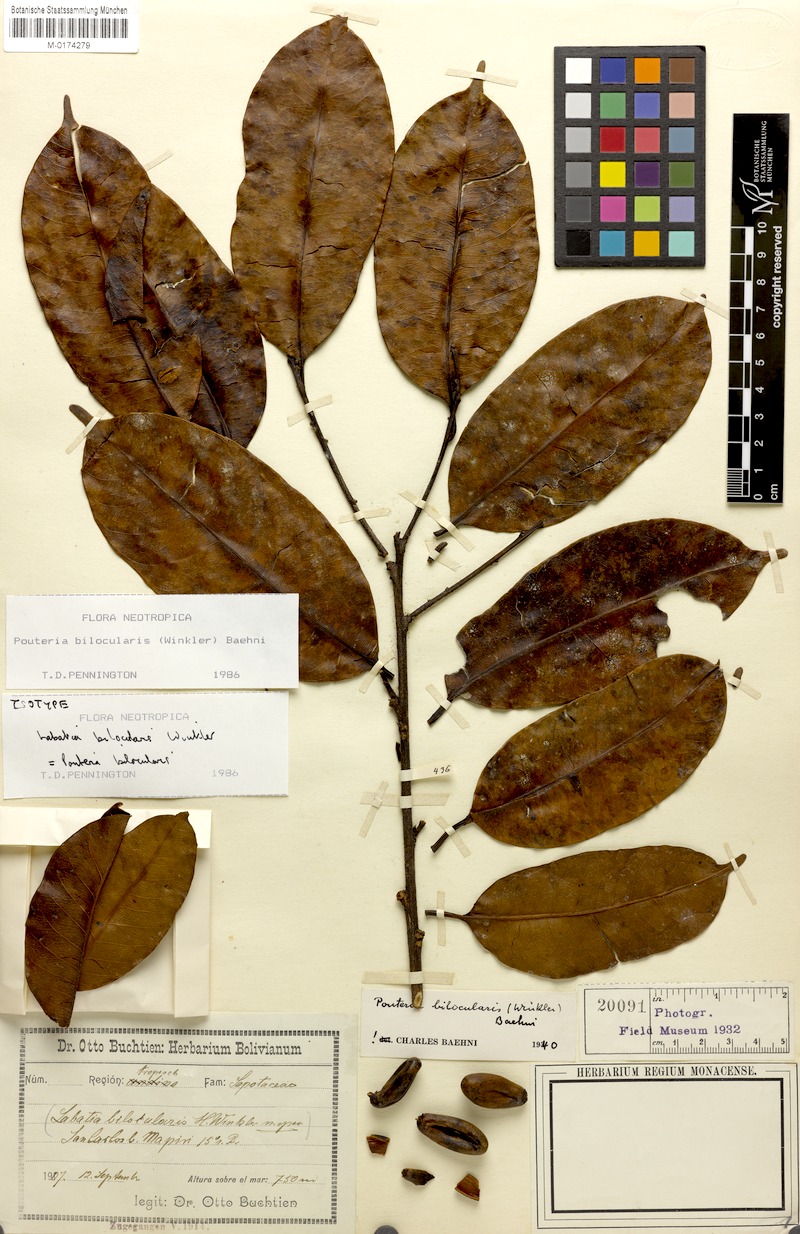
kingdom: Plantae
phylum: Tracheophyta
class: Magnoliopsida
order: Ericales
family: Sapotaceae
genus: Pouteria
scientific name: Pouteria bilocularis
